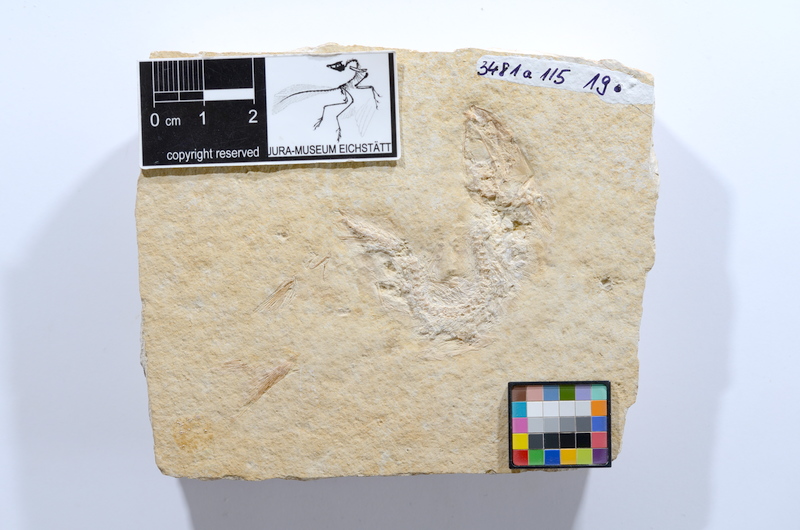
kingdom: Animalia
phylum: Chordata
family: Ascalaboidae
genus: Tharsis
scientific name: Tharsis dubius
